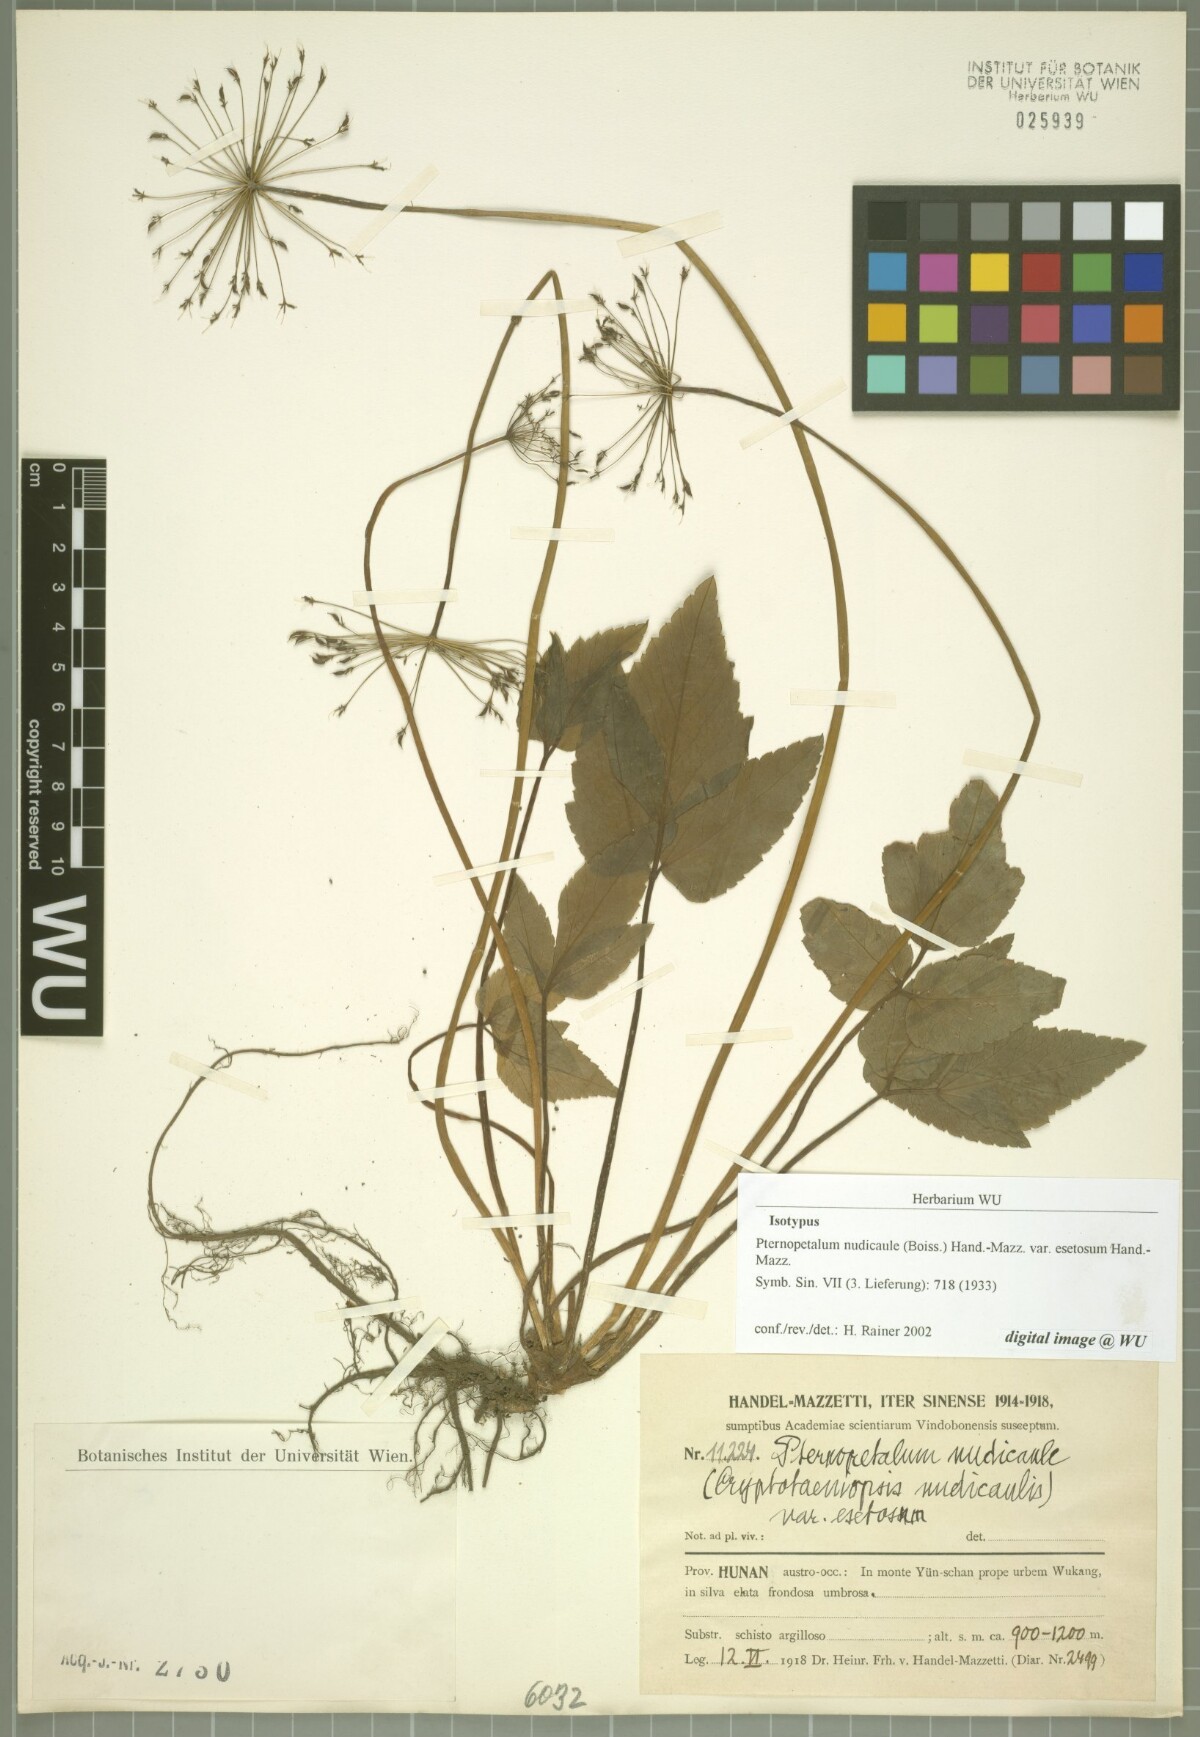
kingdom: Plantae
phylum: Tracheophyta
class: Magnoliopsida
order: Apiales
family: Apiaceae
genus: Pternopetalum
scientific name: Pternopetalum nudicaule
